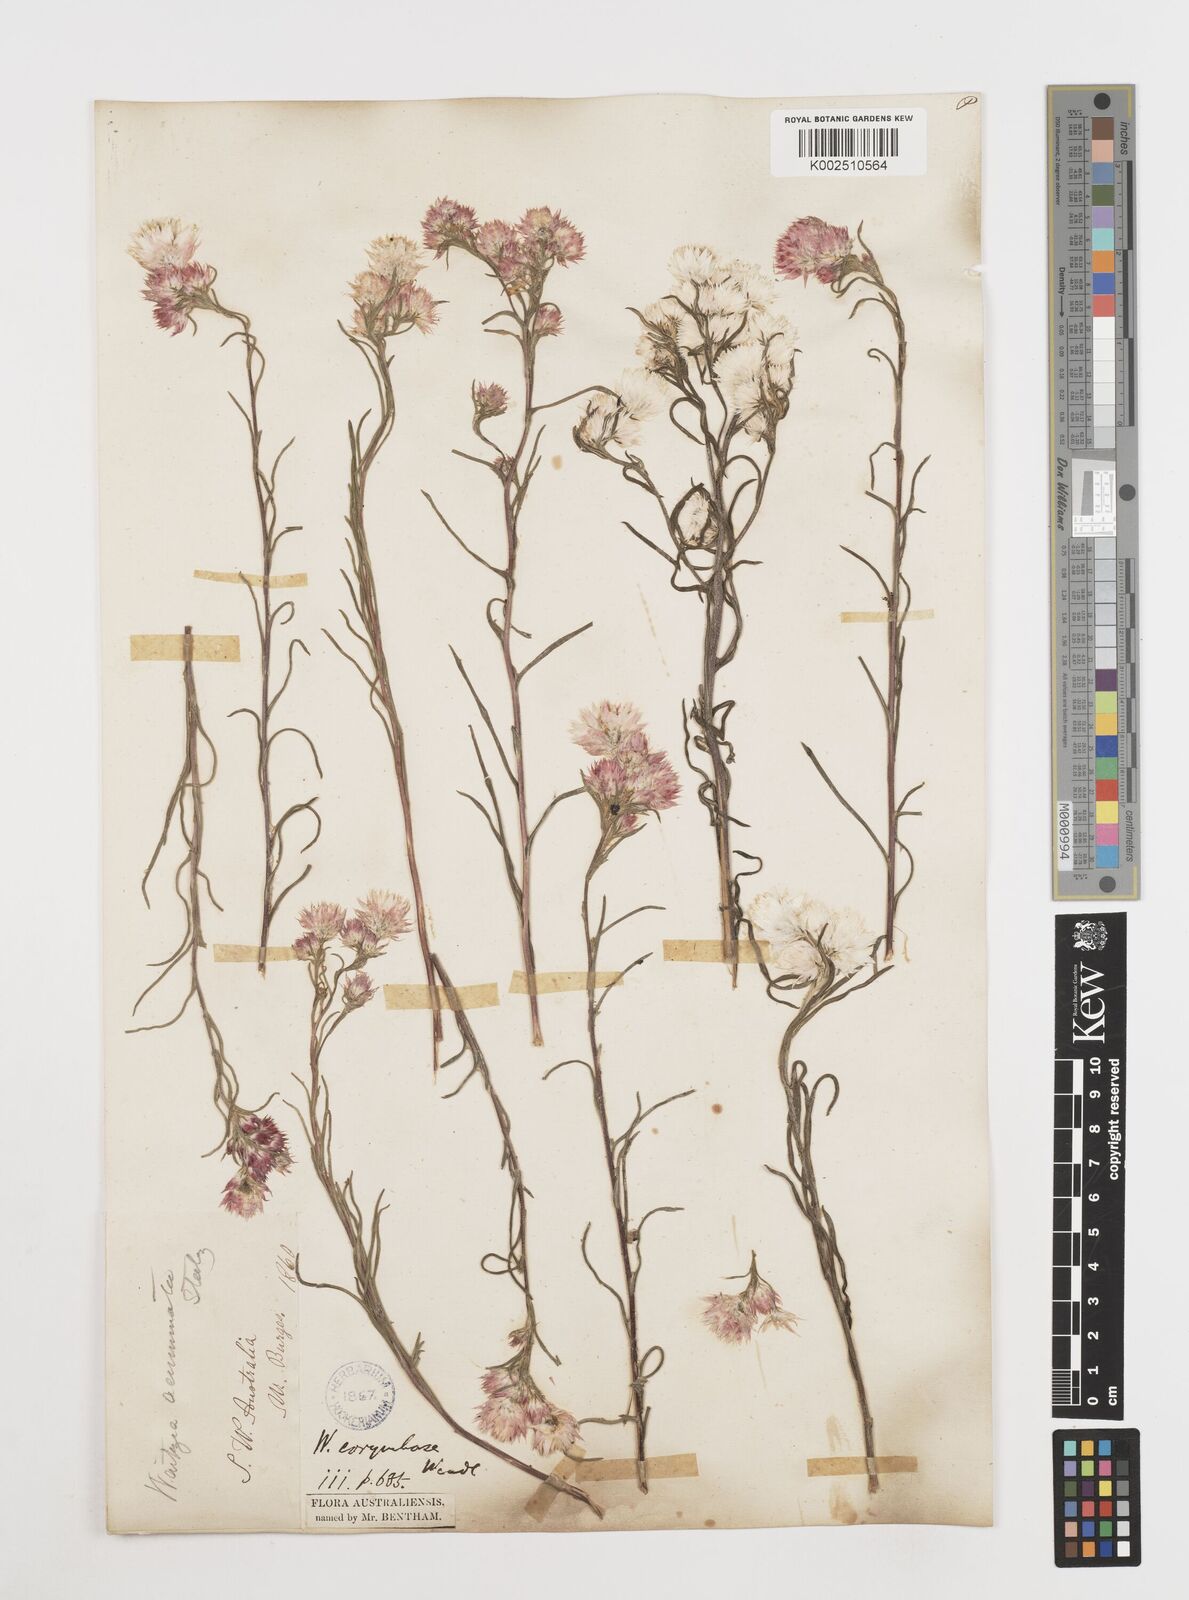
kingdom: Plantae
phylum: Tracheophyta
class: Magnoliopsida
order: Asterales
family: Asteraceae
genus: Waitzia
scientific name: Waitzia acuminata
